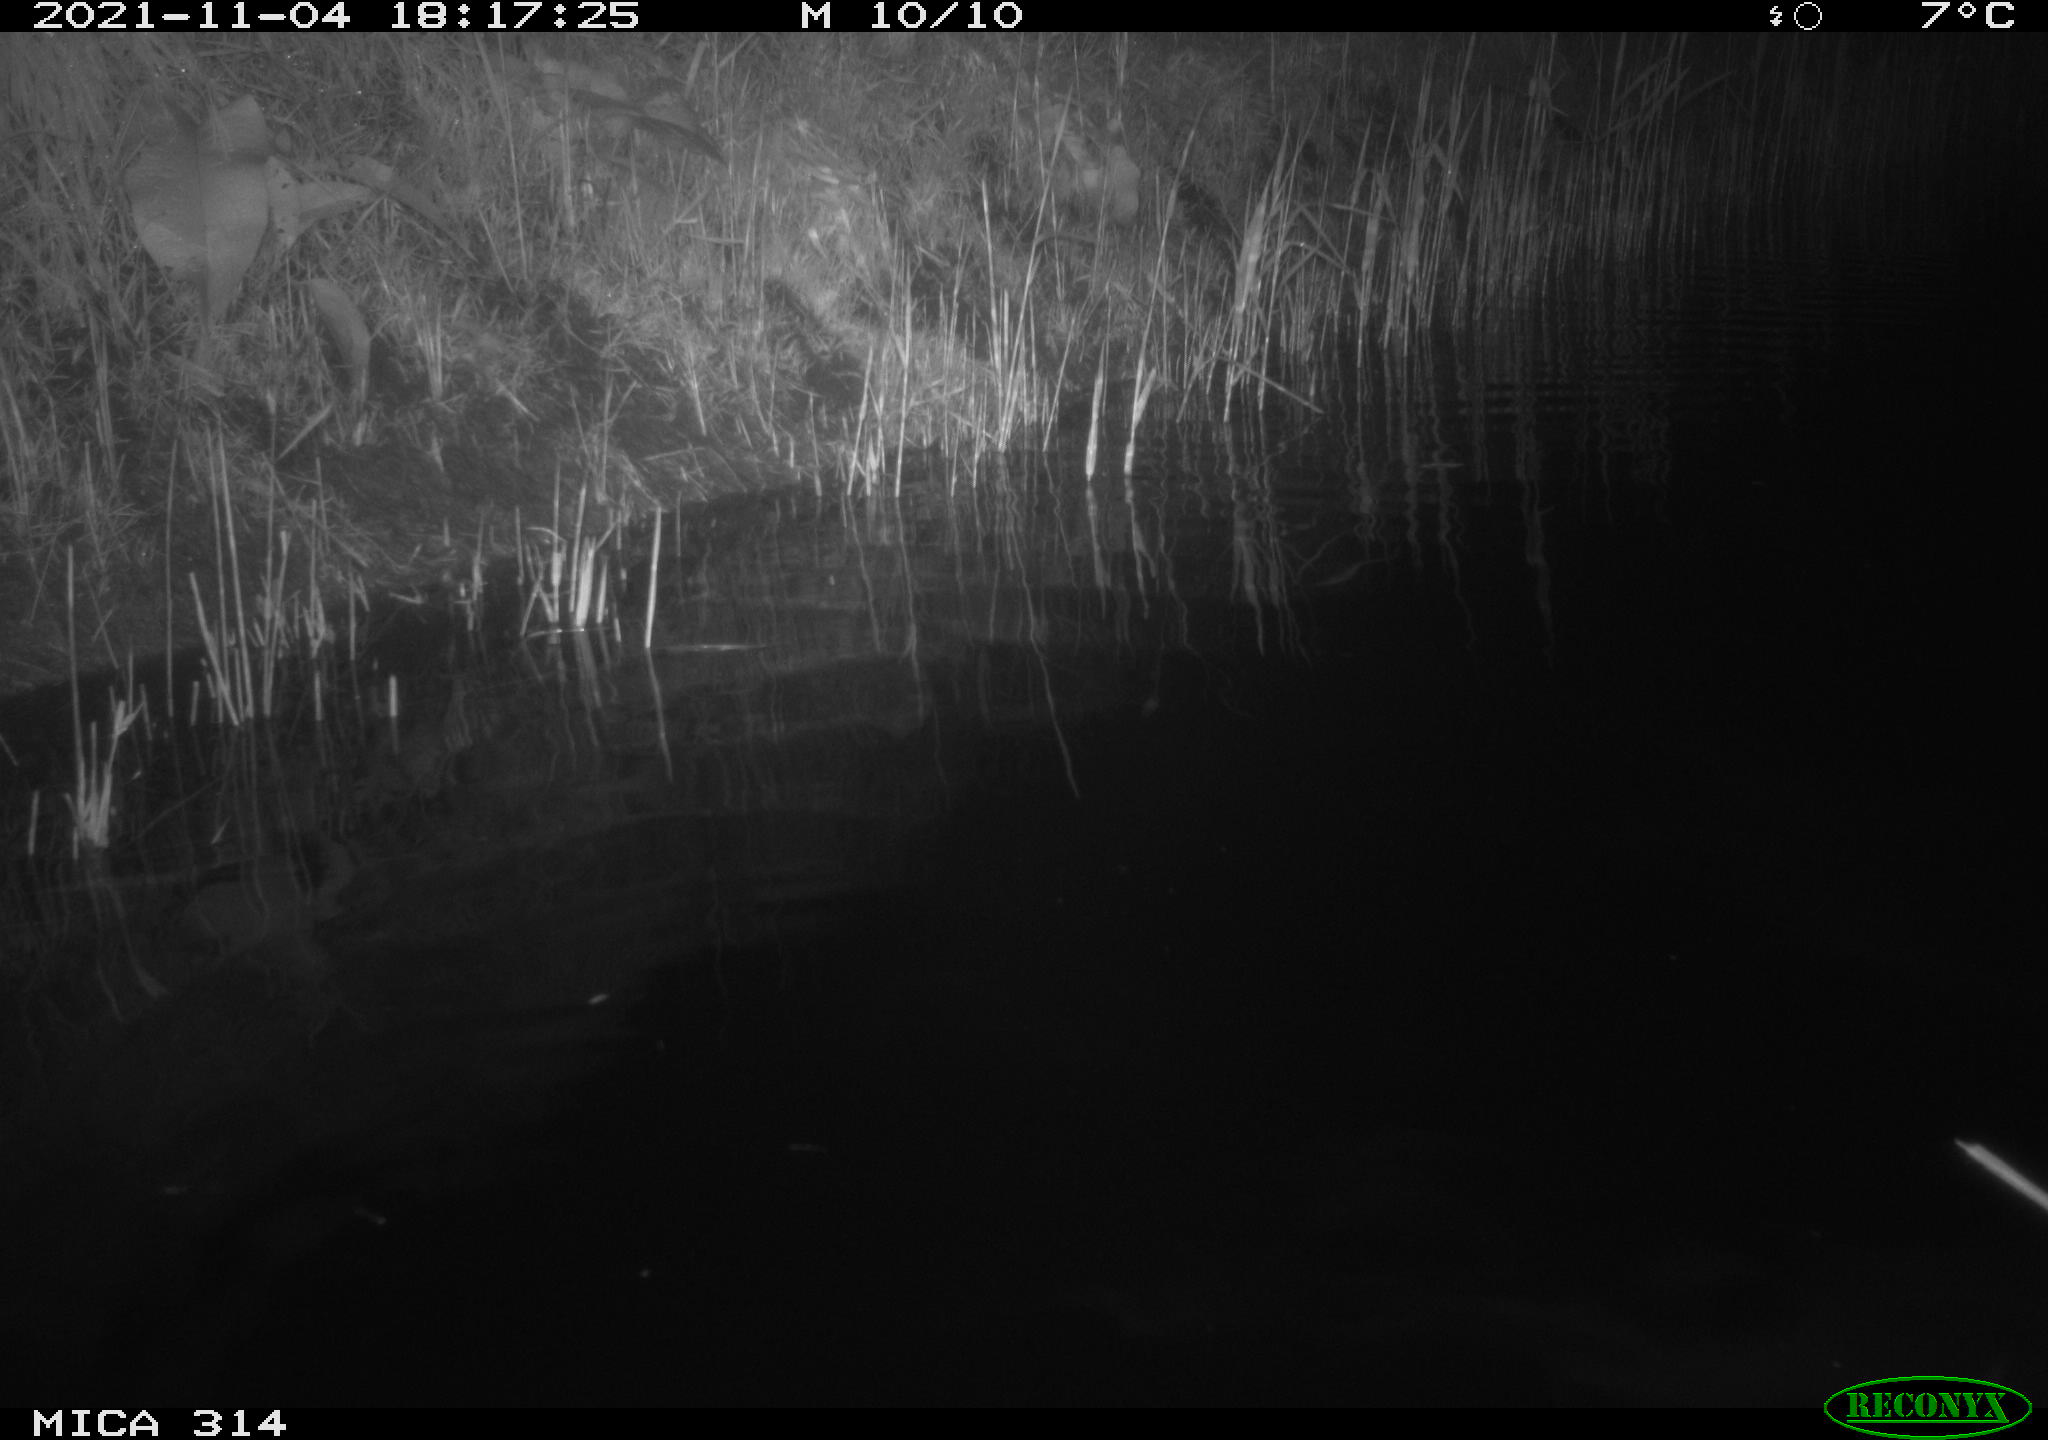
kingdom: Animalia
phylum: Chordata
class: Aves
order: Gruiformes
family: Rallidae
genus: Gallinula
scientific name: Gallinula chloropus
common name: Common moorhen
